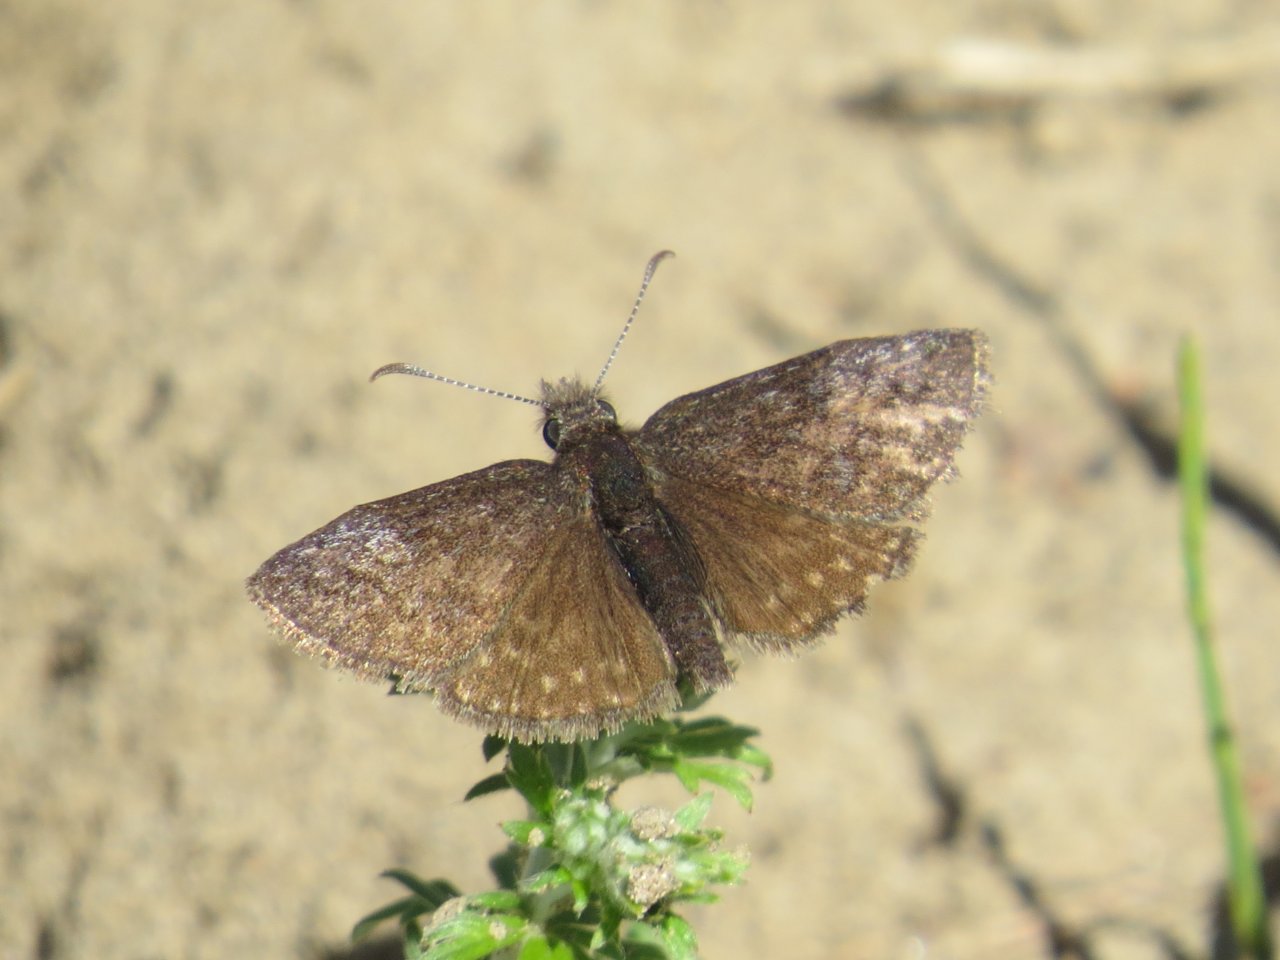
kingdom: Animalia
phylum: Arthropoda
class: Insecta
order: Lepidoptera
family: Hesperiidae
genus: Erynnis
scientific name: Erynnis icelus
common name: Dreamy Duskywing
